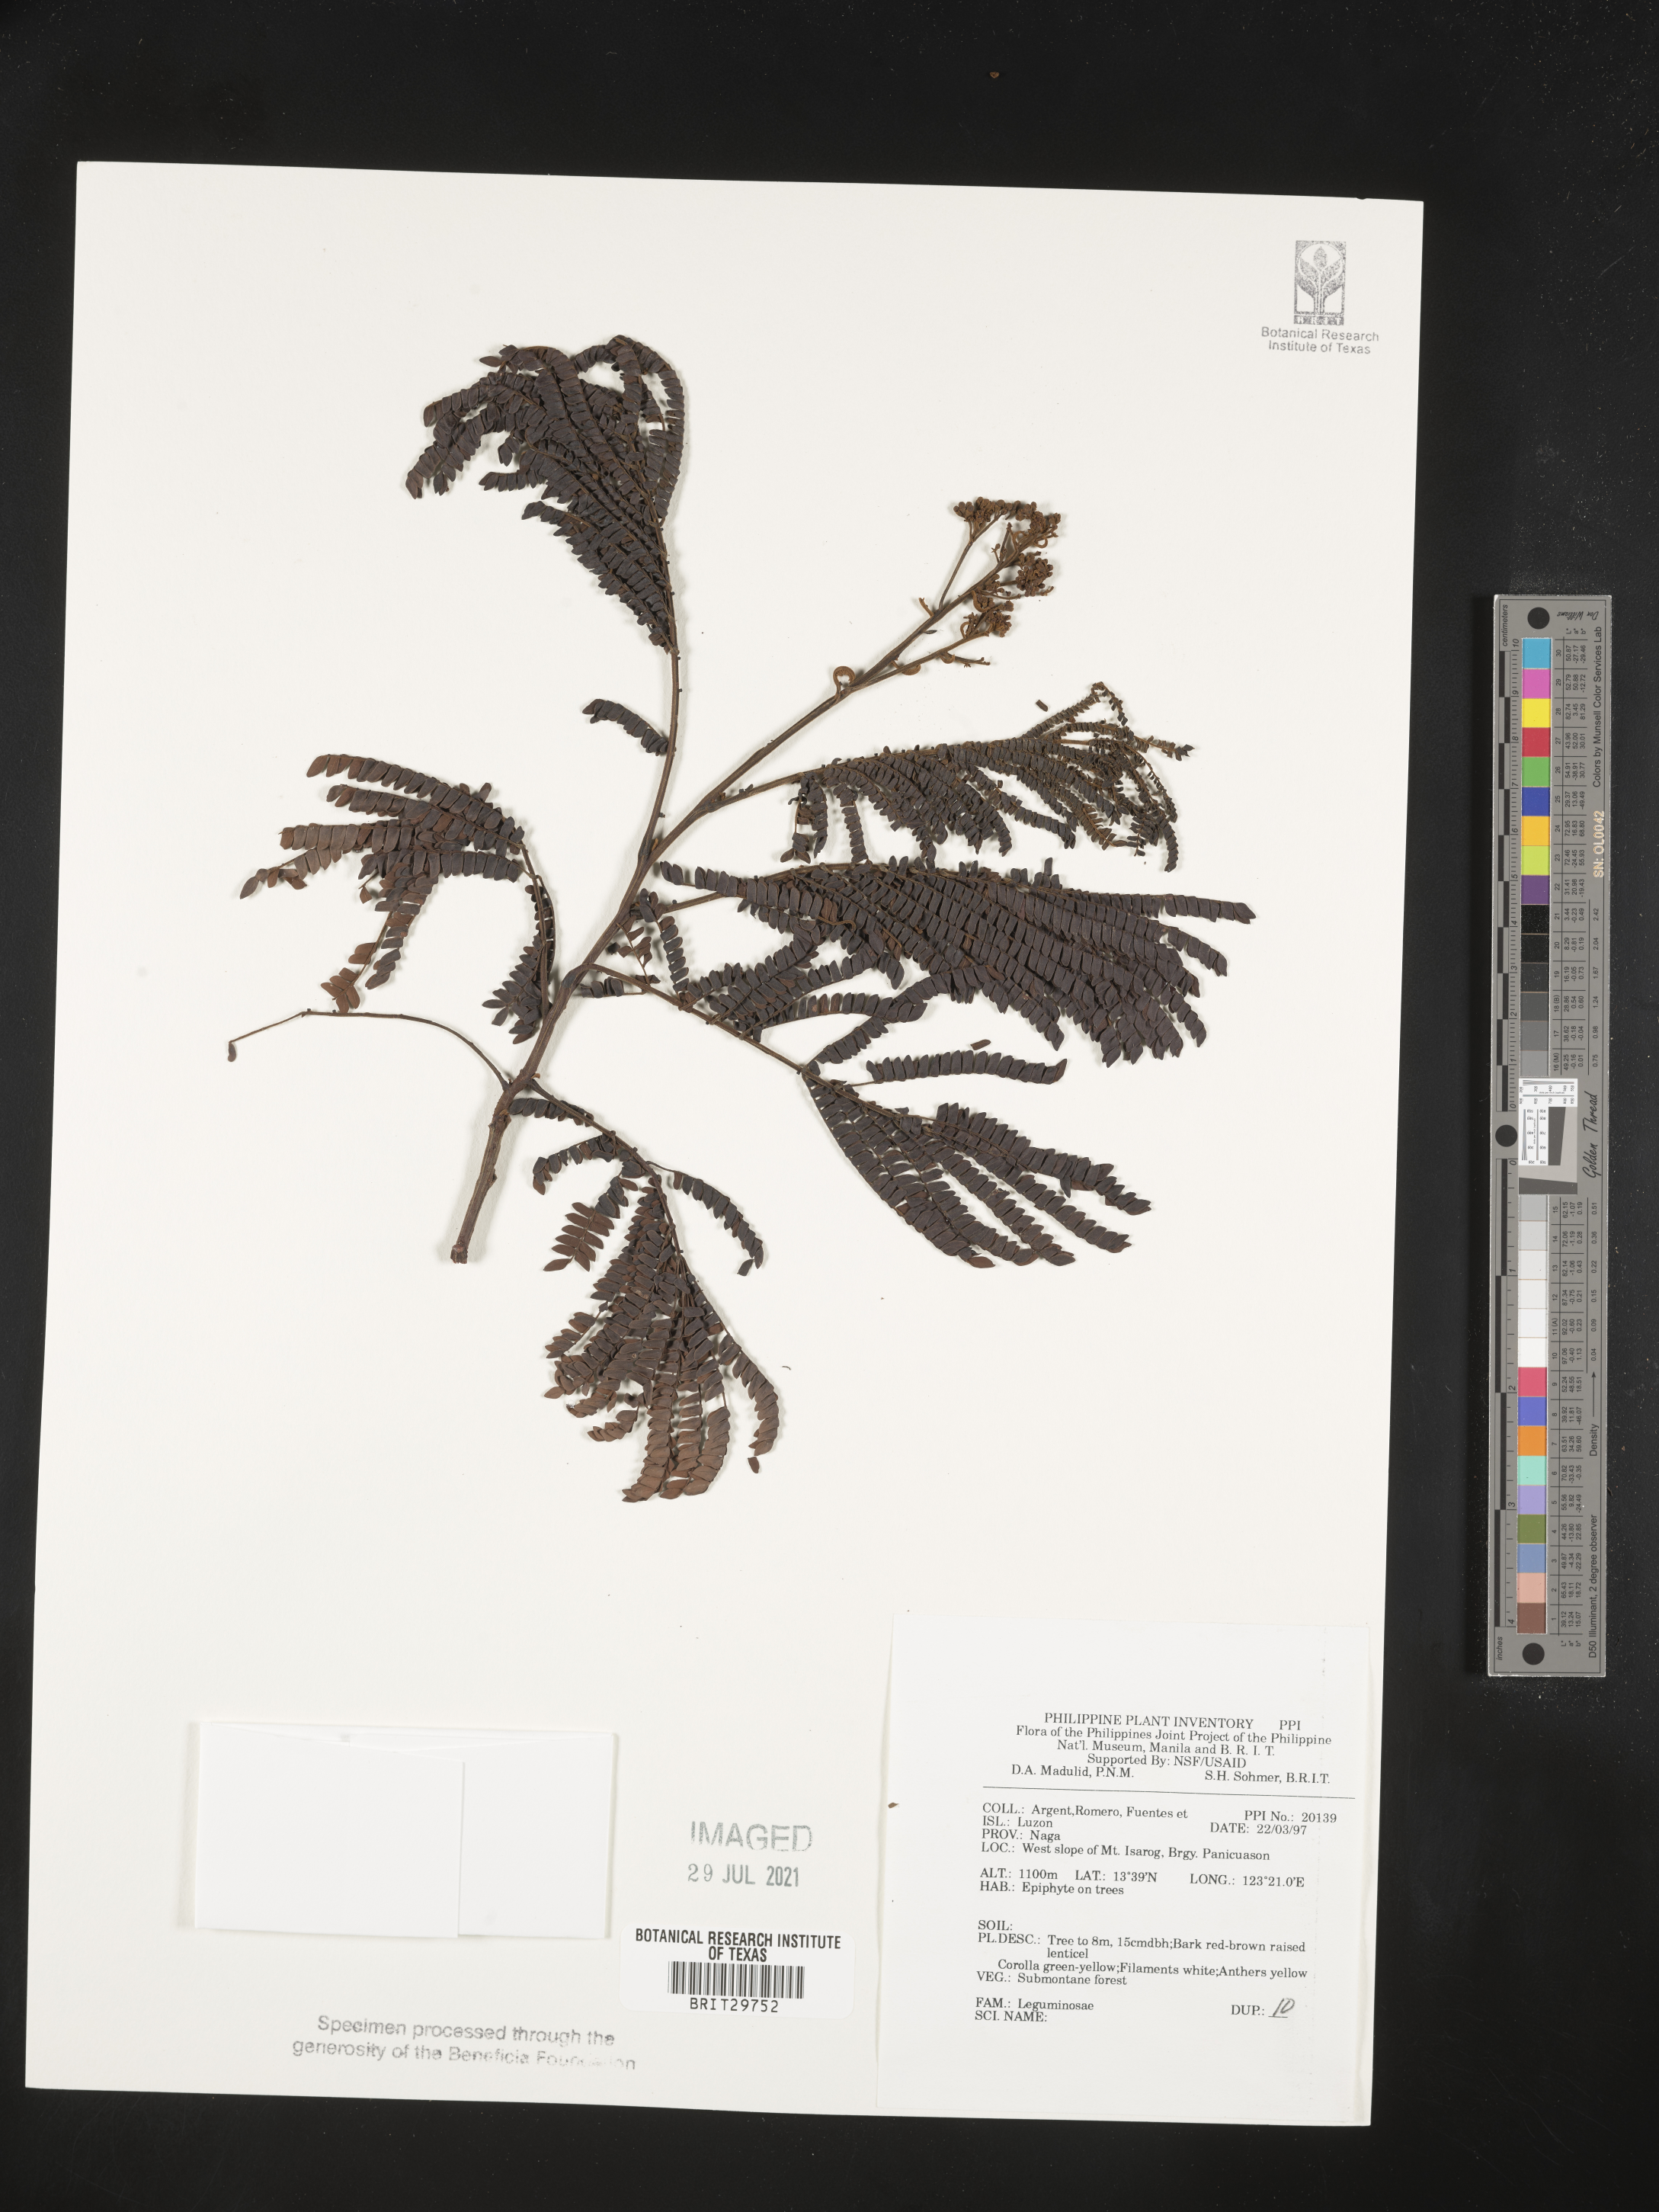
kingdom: Plantae
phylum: Tracheophyta
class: Magnoliopsida
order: Fabales
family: Fabaceae
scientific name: Fabaceae
